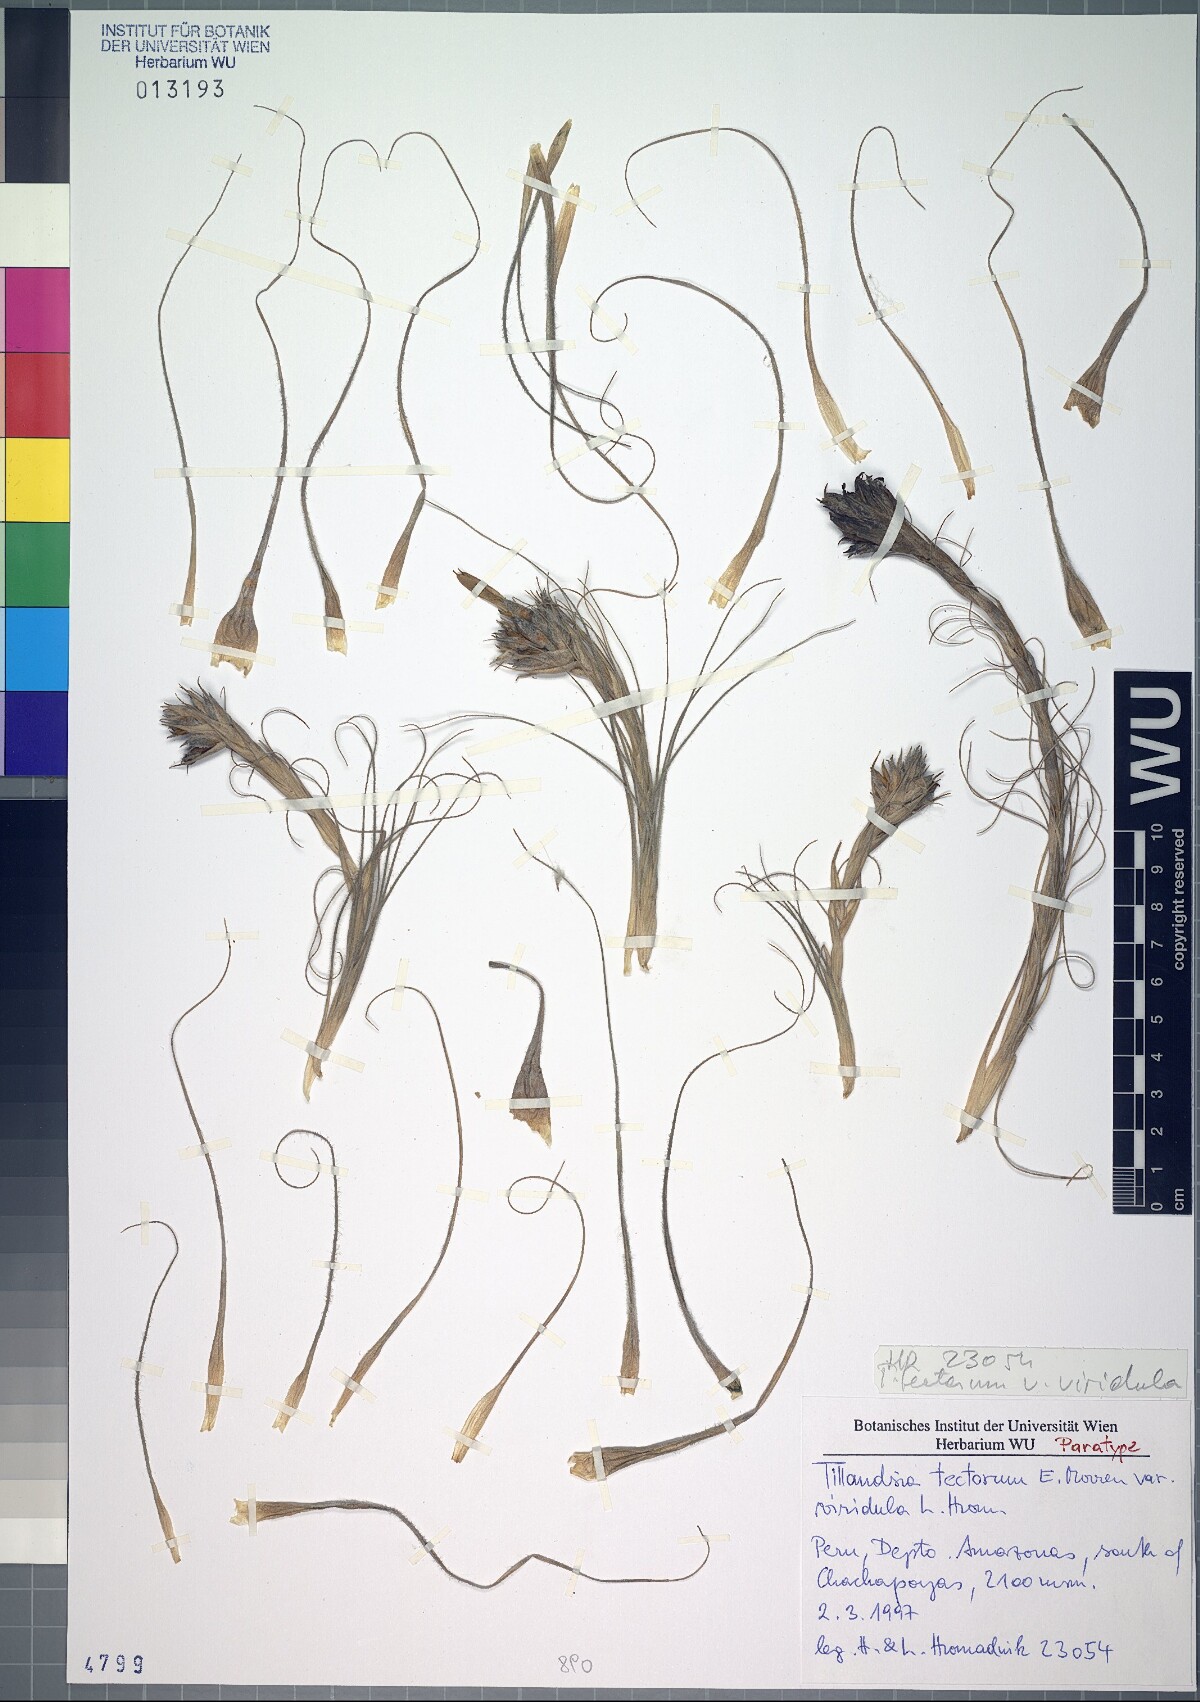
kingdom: Plantae
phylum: Tracheophyta
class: Liliopsida
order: Poales
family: Bromeliaceae
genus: Tillandsia
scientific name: Tillandsia tectorum
